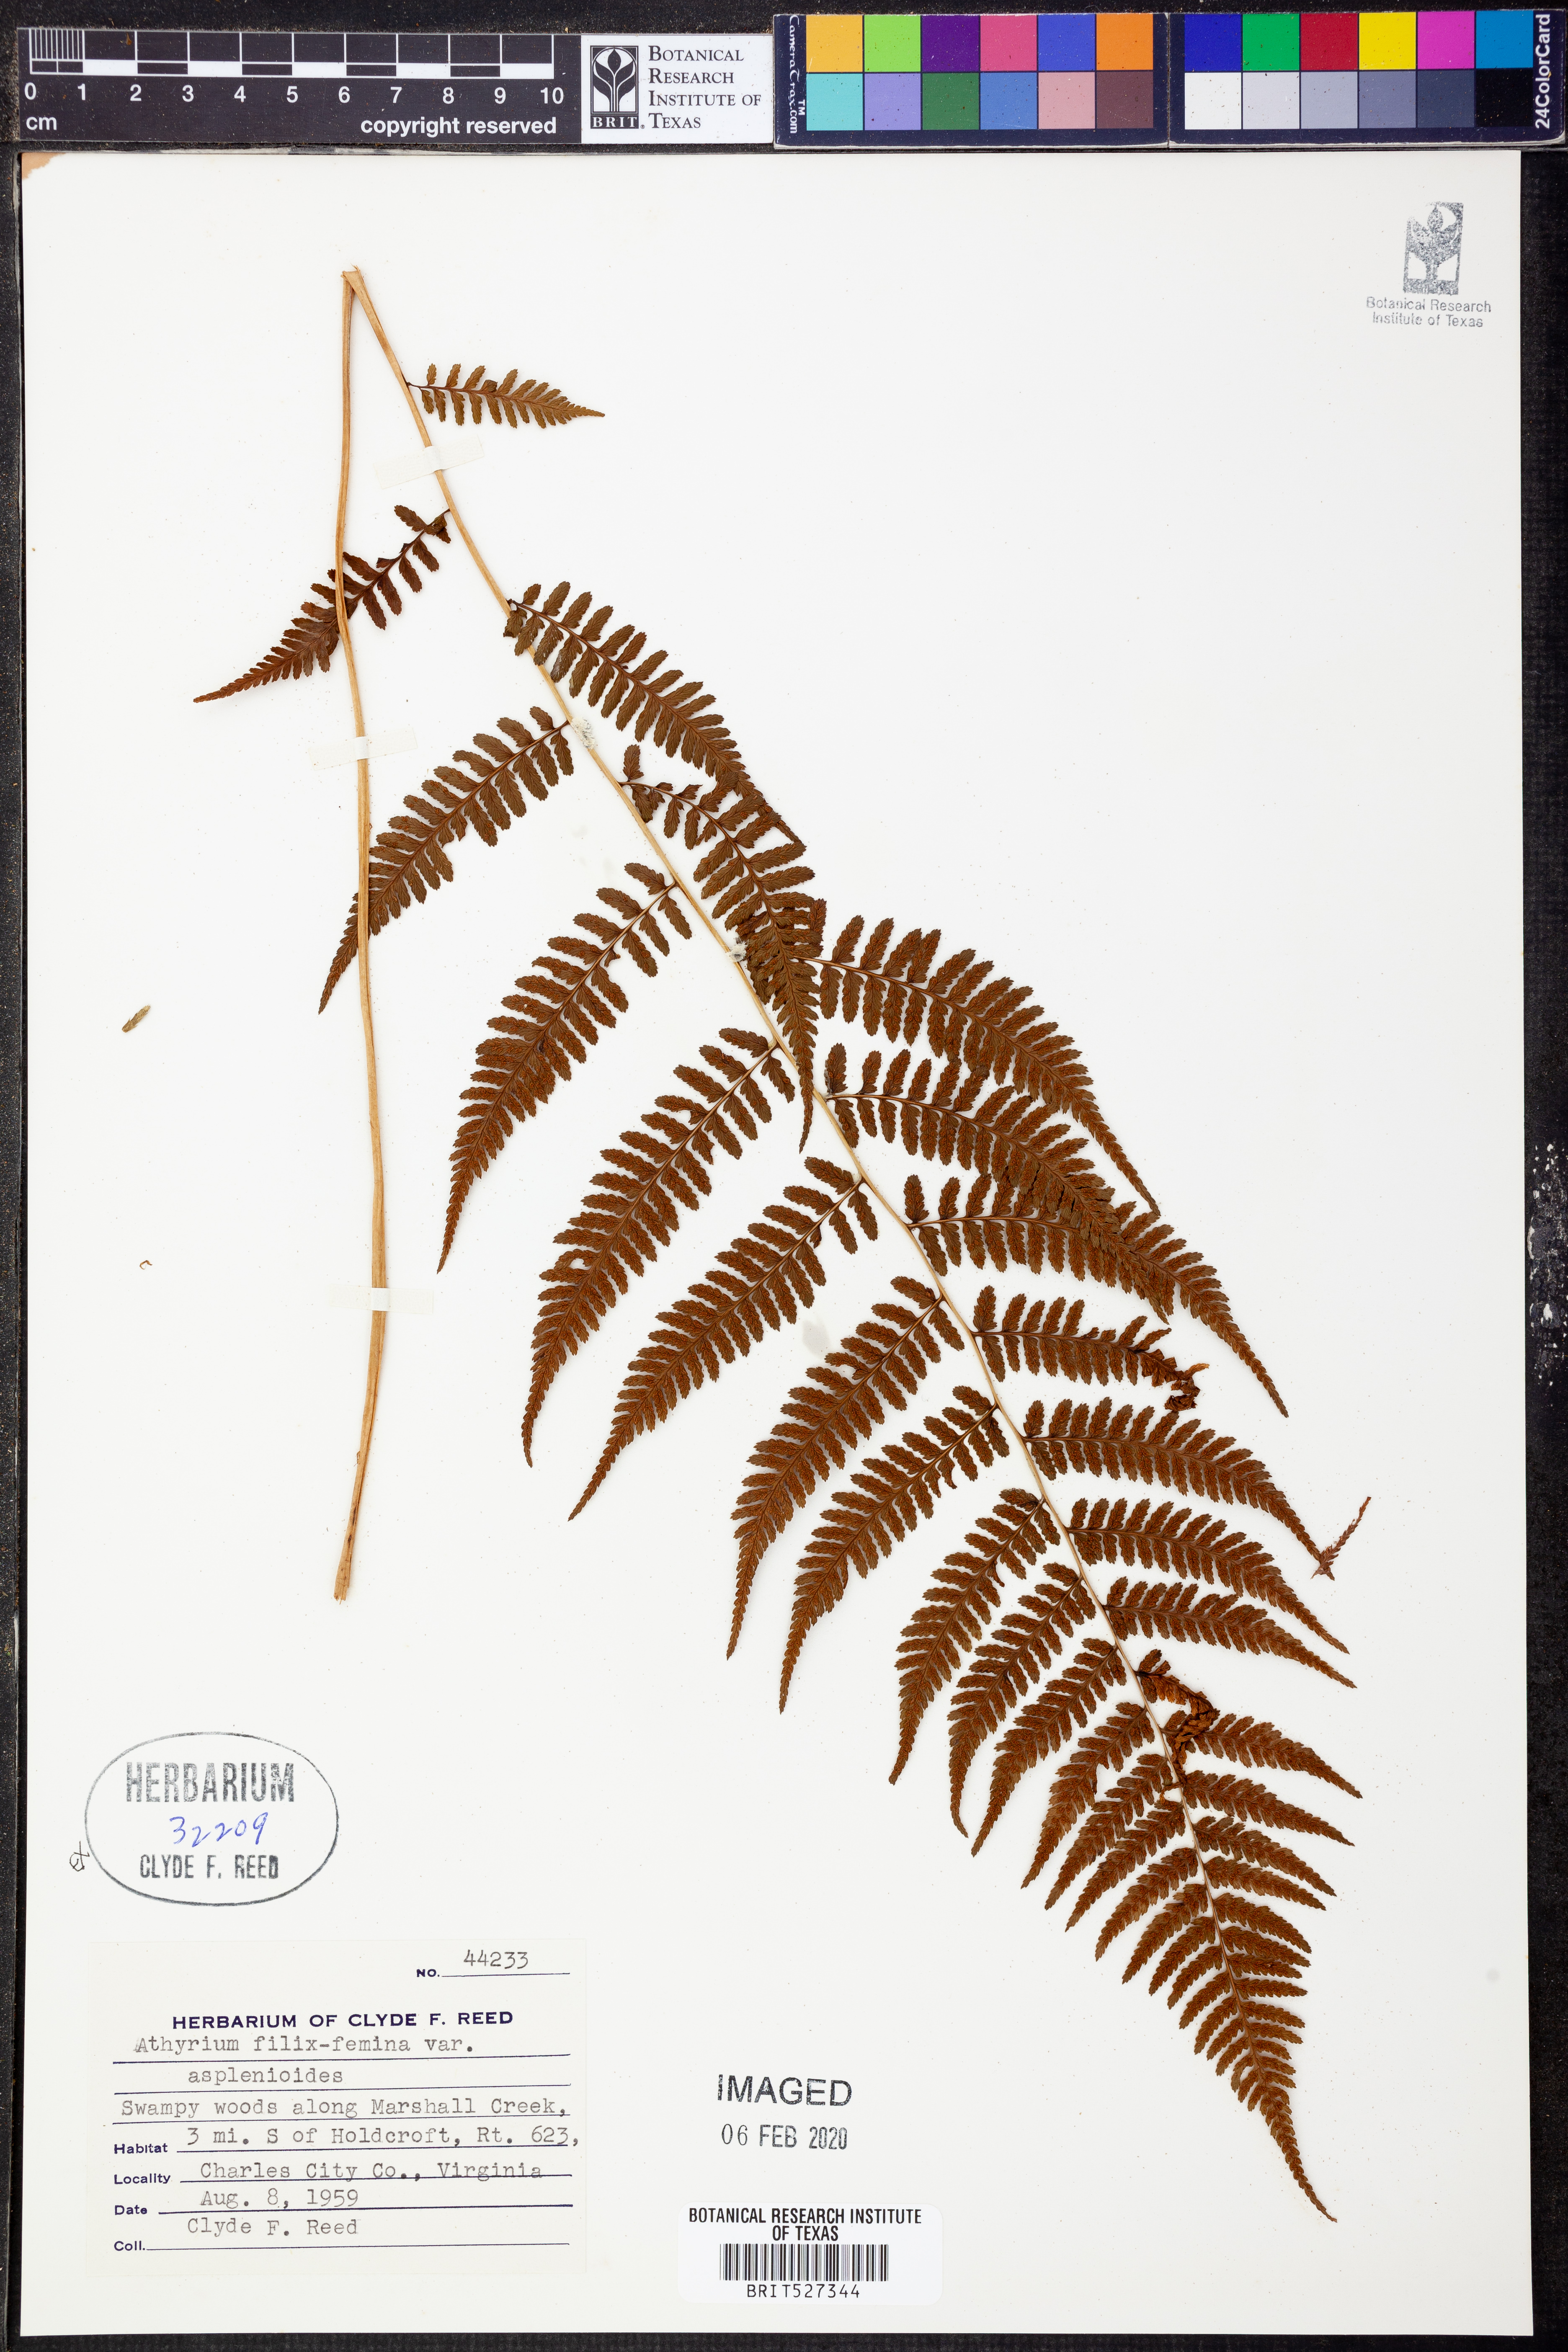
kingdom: Plantae
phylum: Tracheophyta
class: Polypodiopsida
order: Polypodiales
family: Athyriaceae
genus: Athyrium
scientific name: Athyrium asplenioides
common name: Southern lady fern
